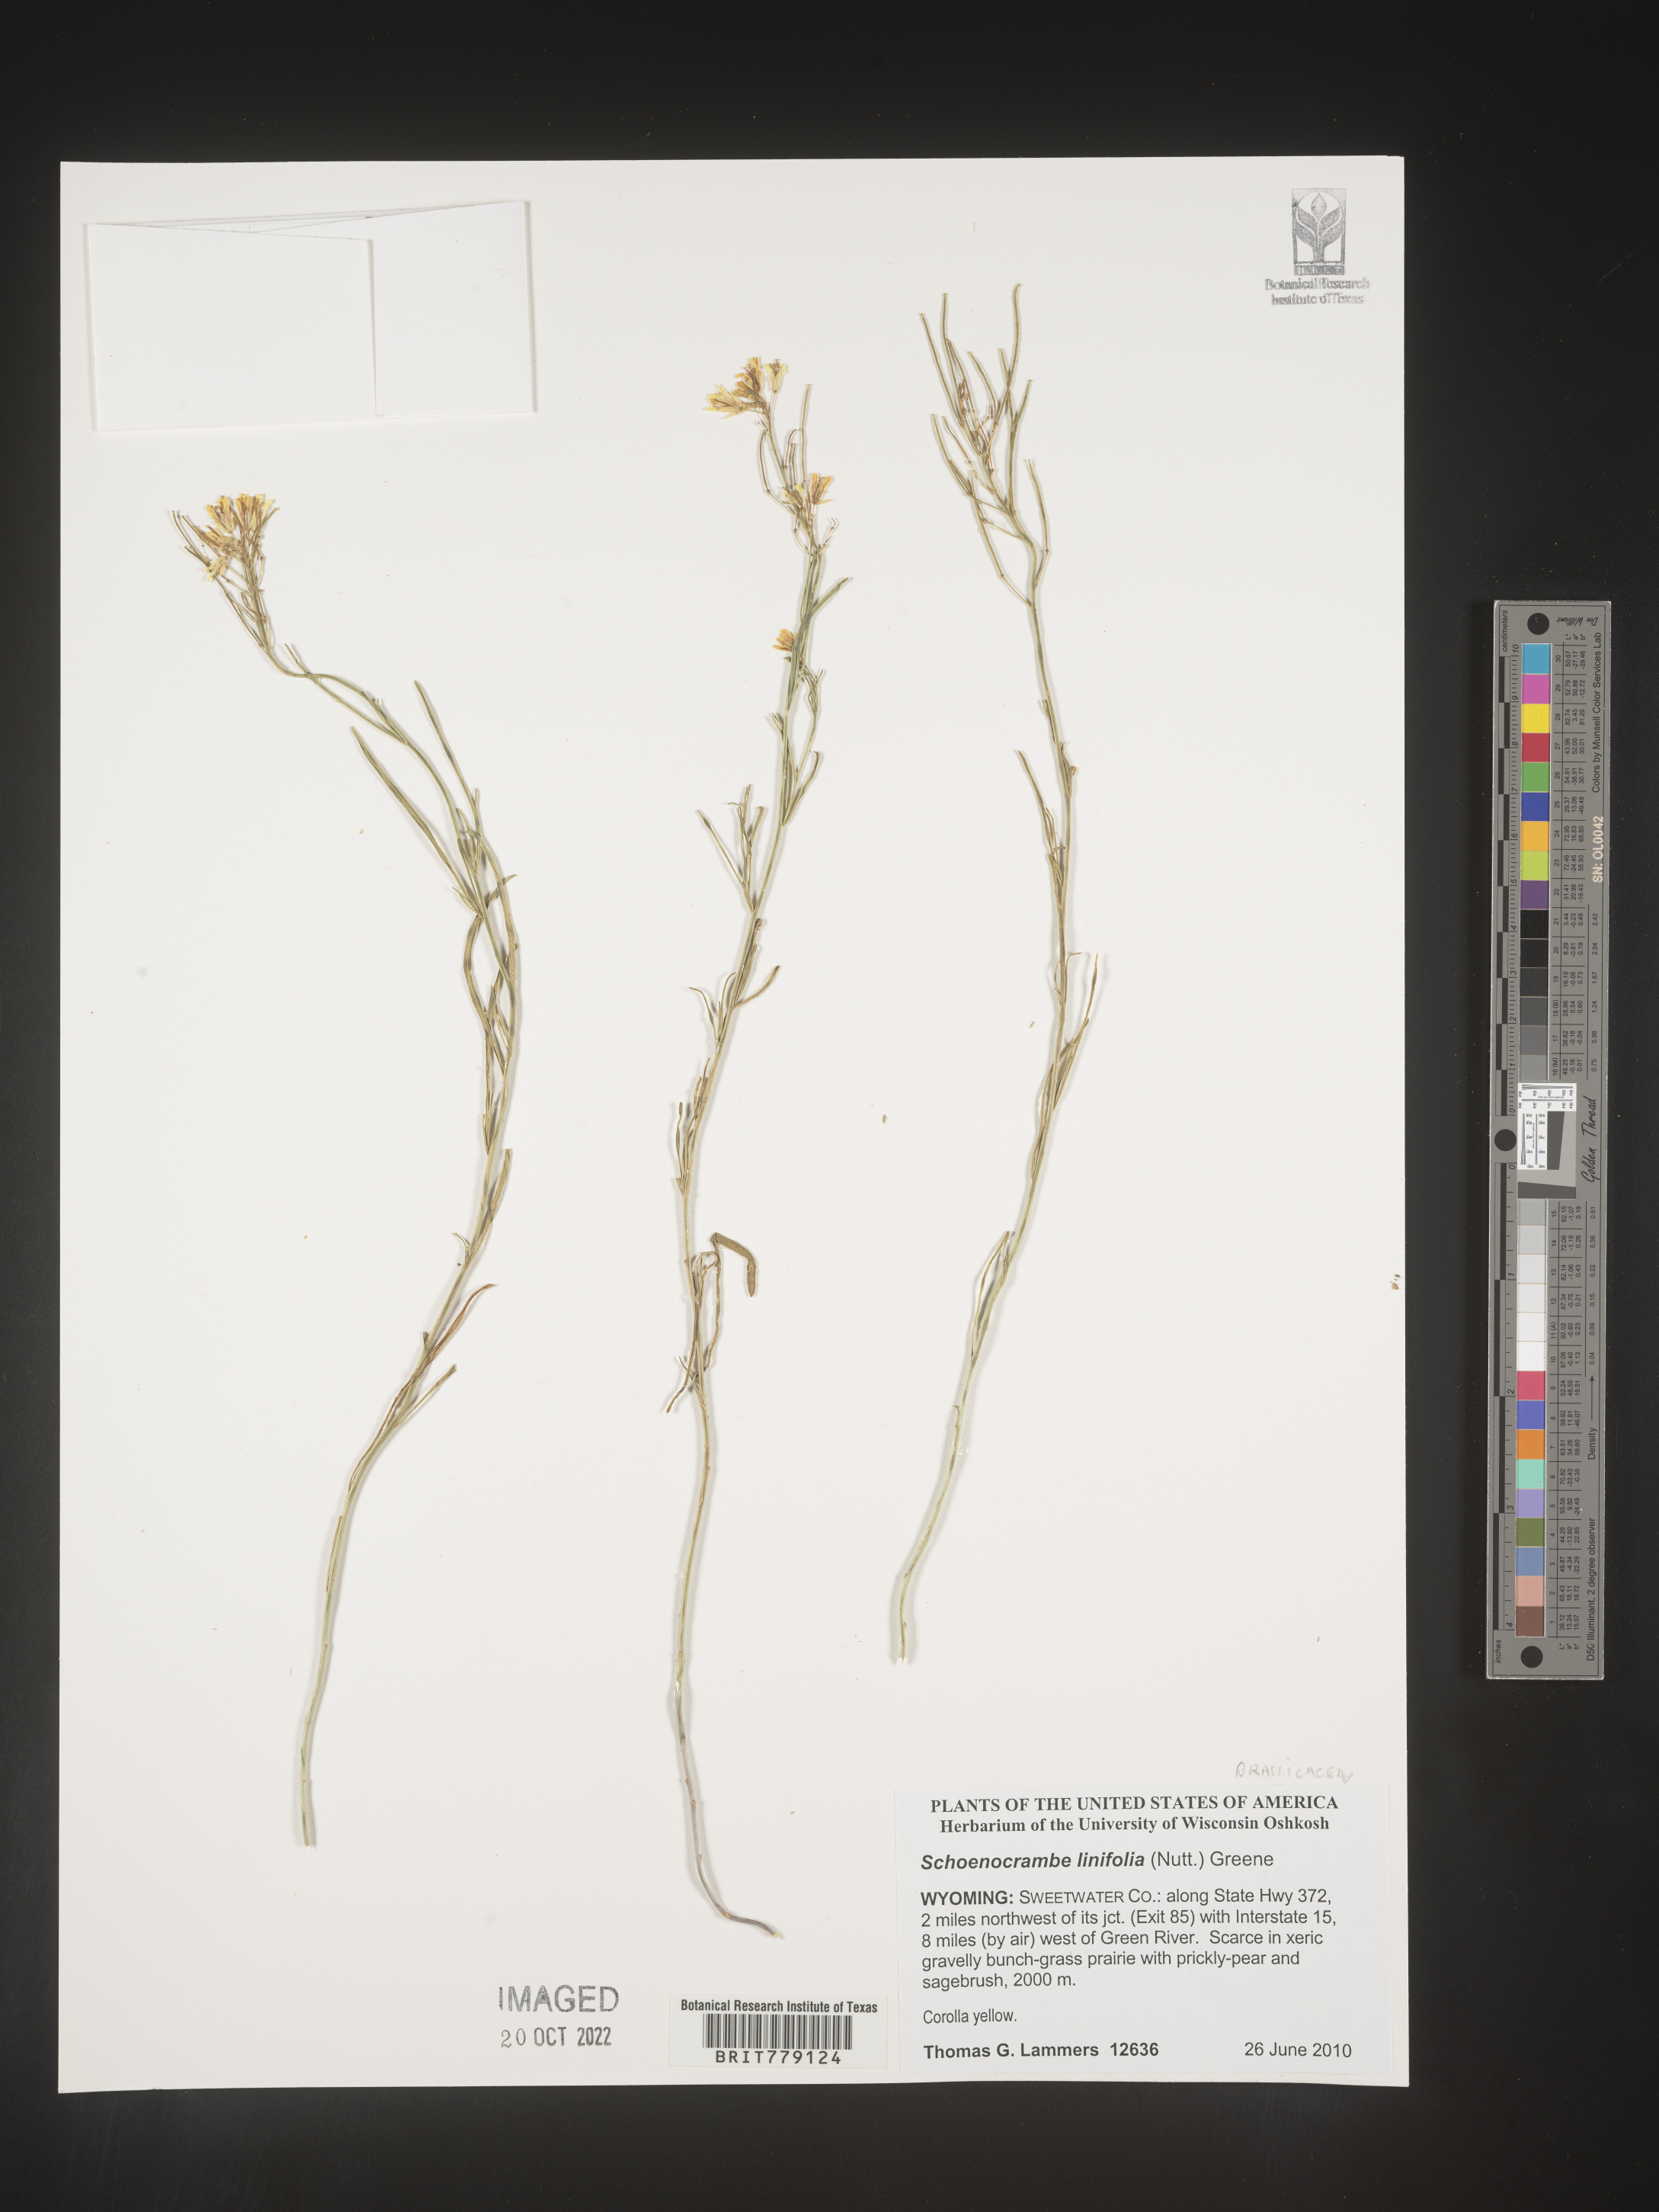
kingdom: Plantae
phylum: Tracheophyta
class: Magnoliopsida
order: Brassicales
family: Brassicaceae
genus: Hesperidanthus
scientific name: Hesperidanthus
